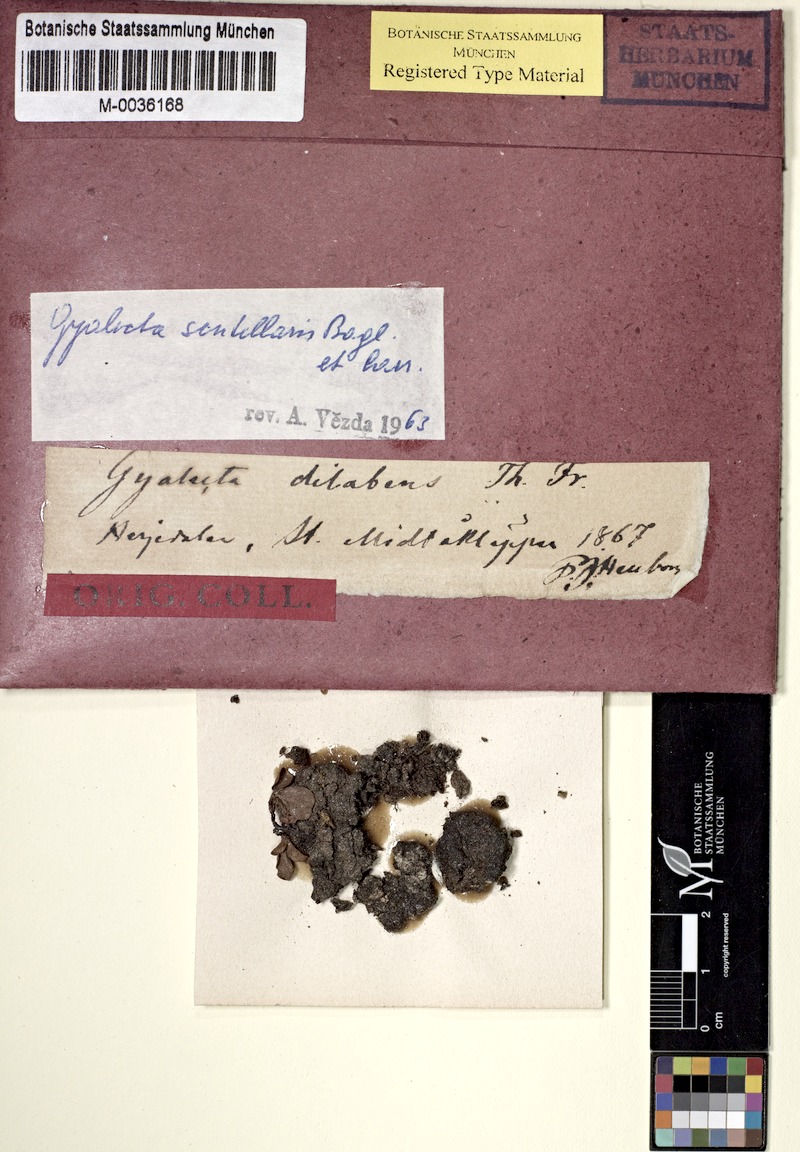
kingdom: Fungi
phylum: Ascomycota
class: Lecanoromycetes
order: Ostropales
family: Graphidaceae
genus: Gyalidea
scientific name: Gyalidea scutellaris
